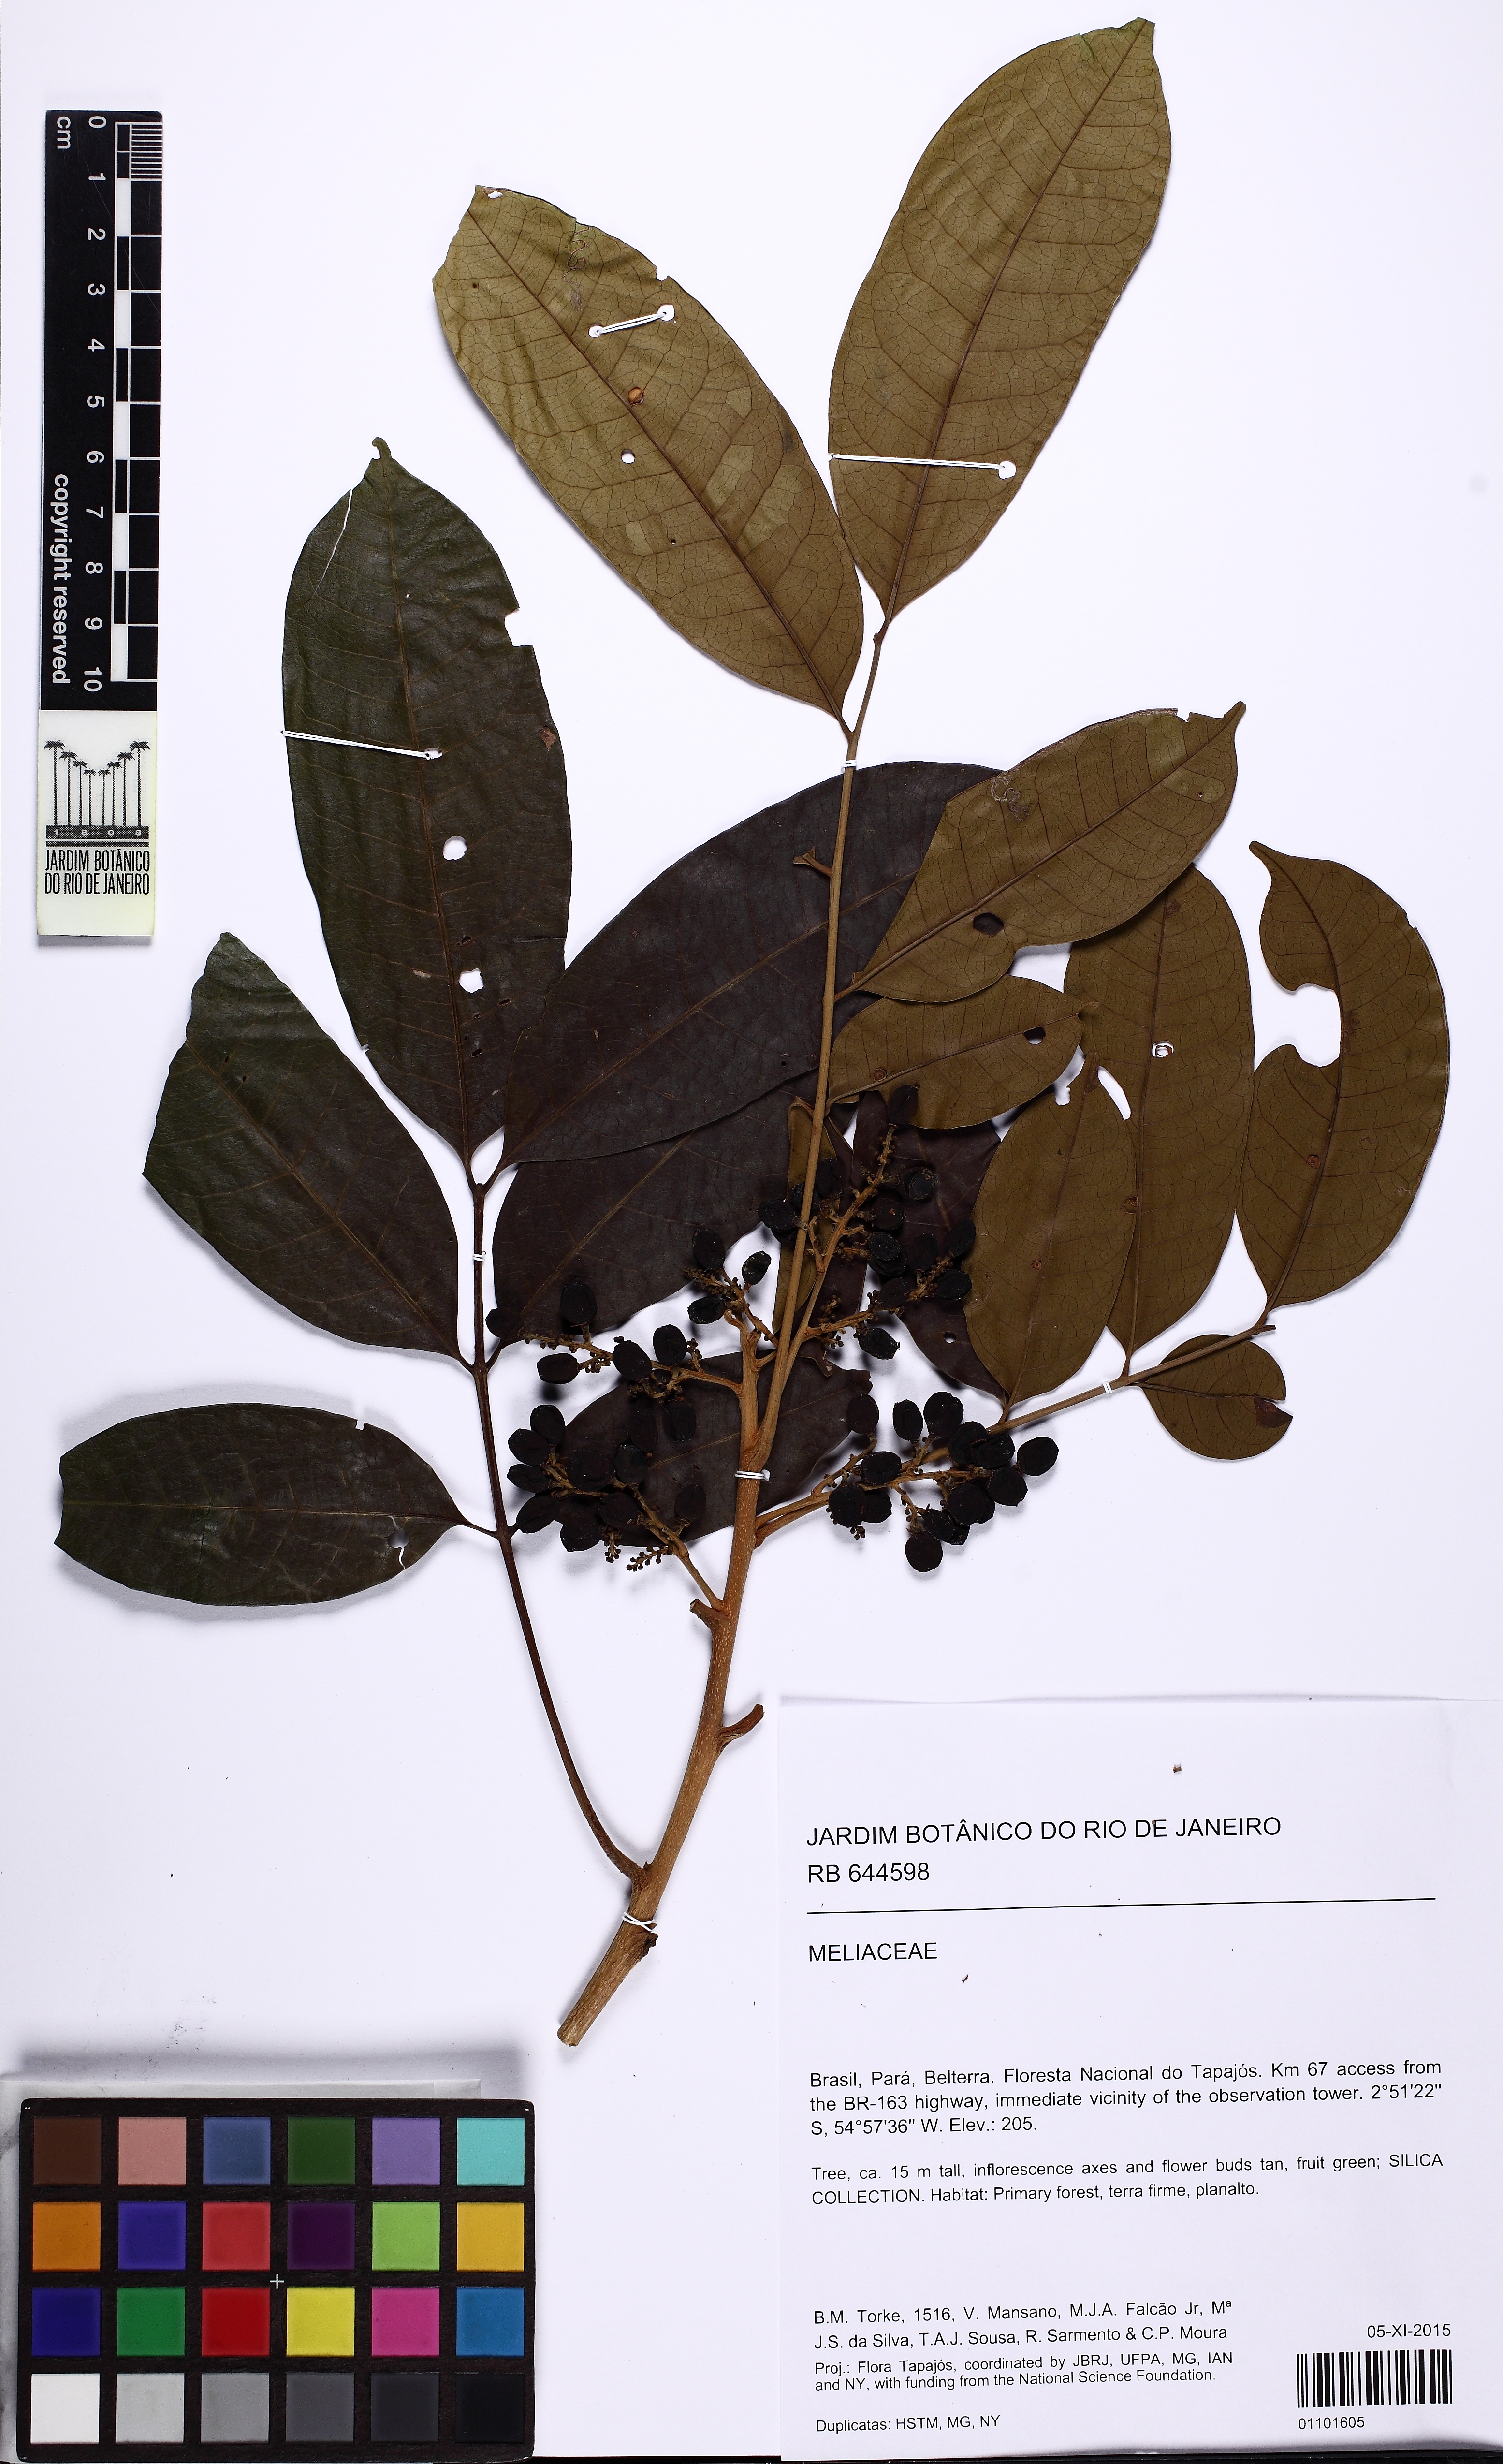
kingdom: Plantae
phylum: Tracheophyta
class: Magnoliopsida
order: Sapindales
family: Anacardiaceae
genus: Tapirira
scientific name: Tapirira guianensis
